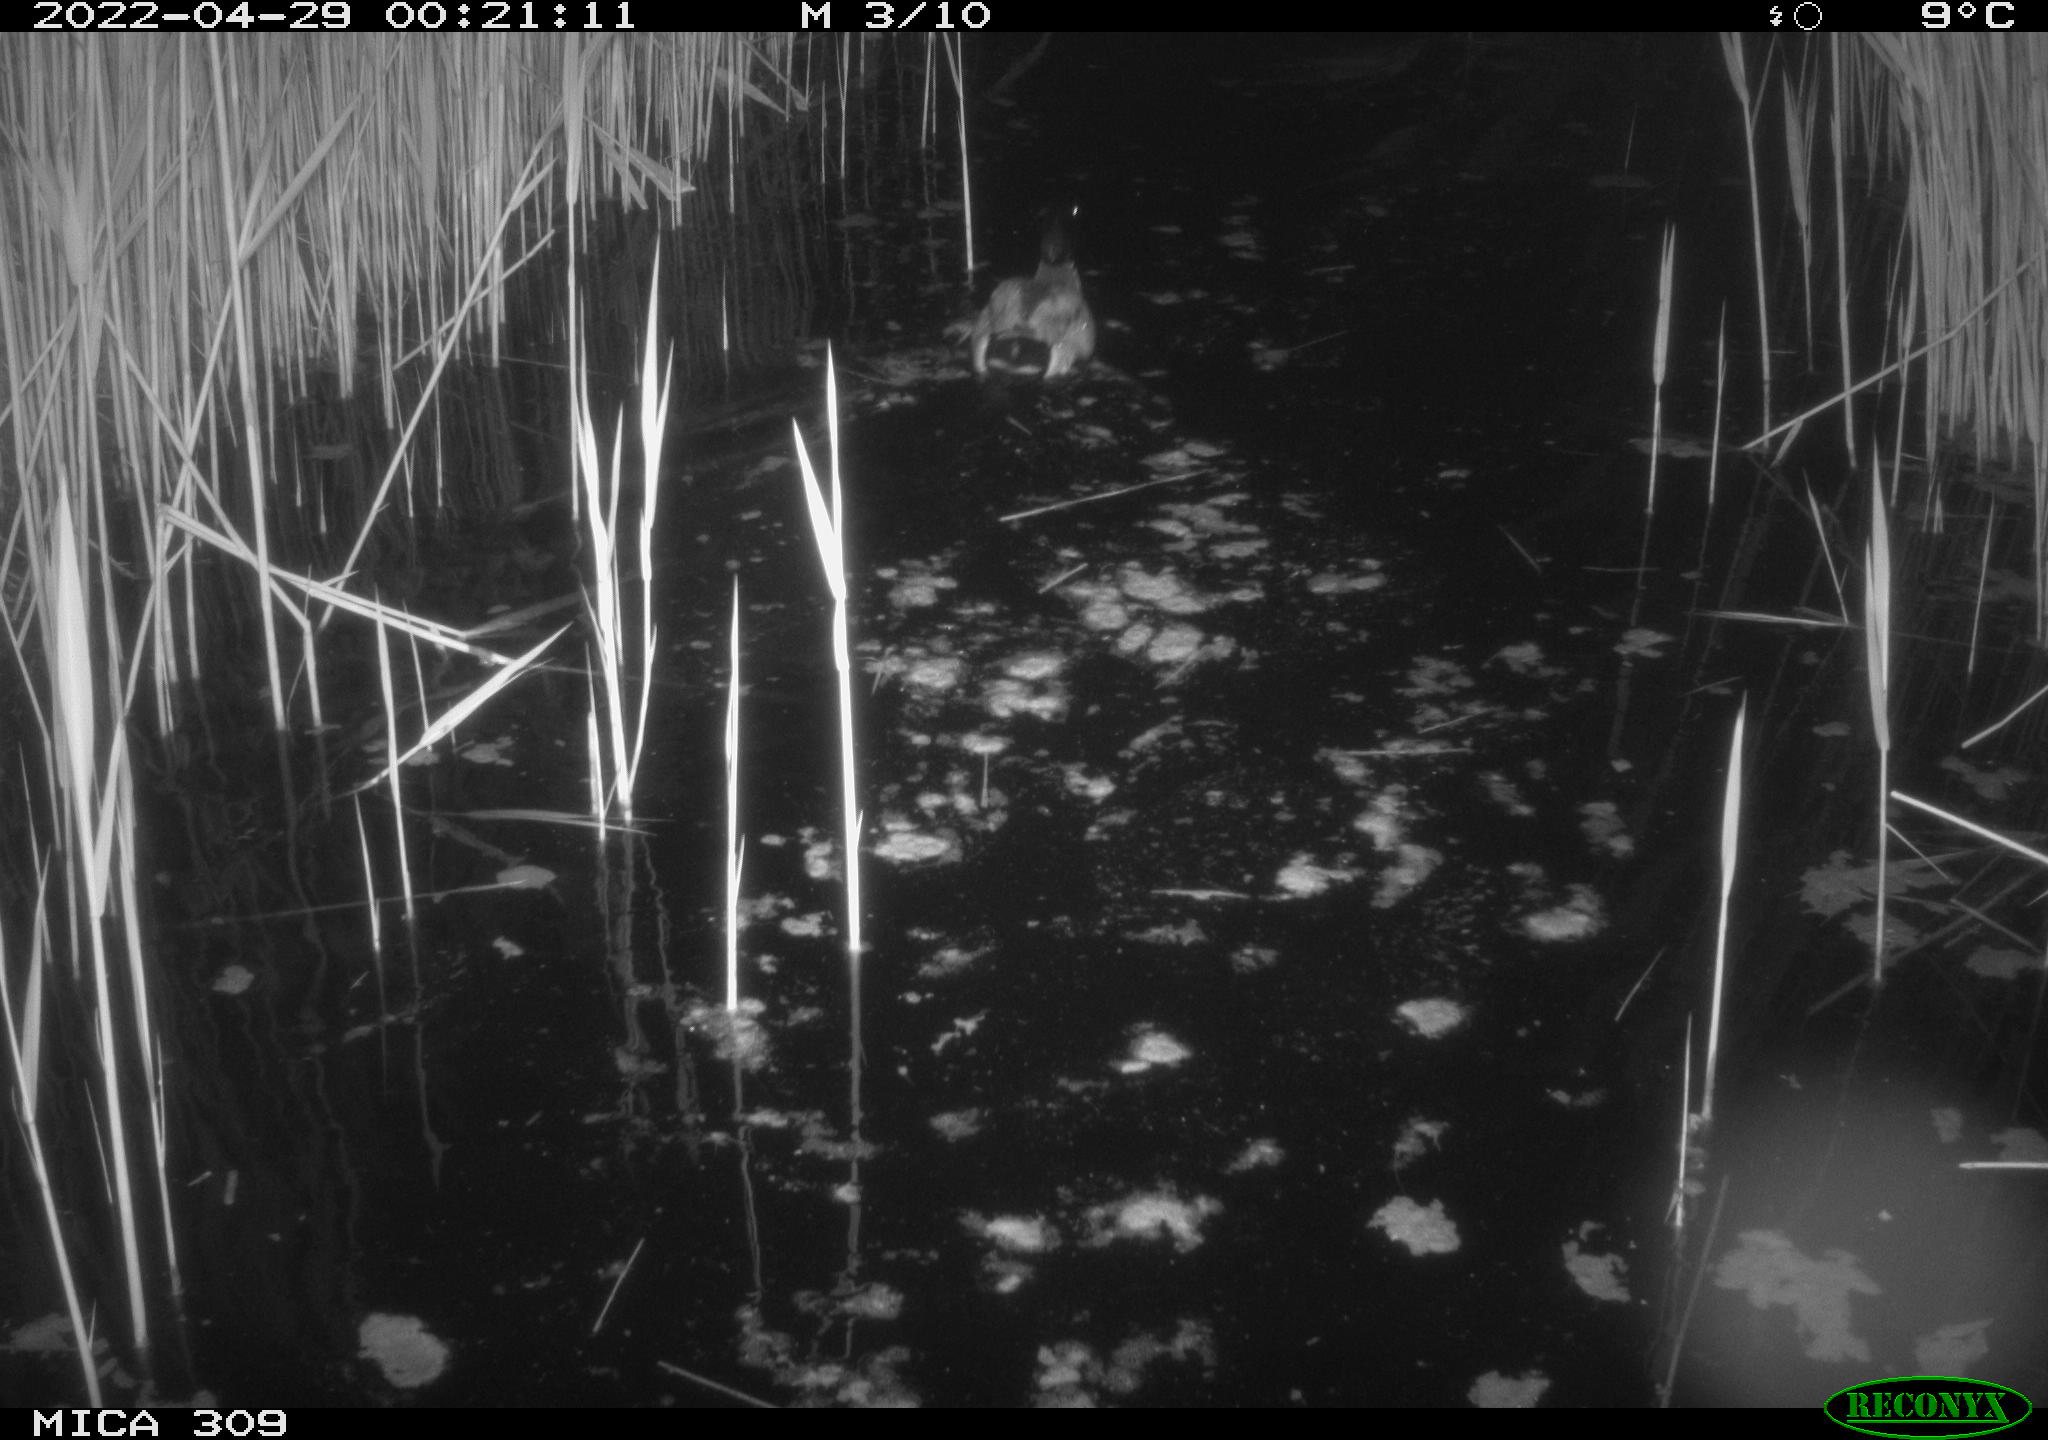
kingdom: Animalia
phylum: Chordata
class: Aves
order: Anseriformes
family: Anatidae
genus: Anas
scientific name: Anas platyrhynchos
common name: Mallard
